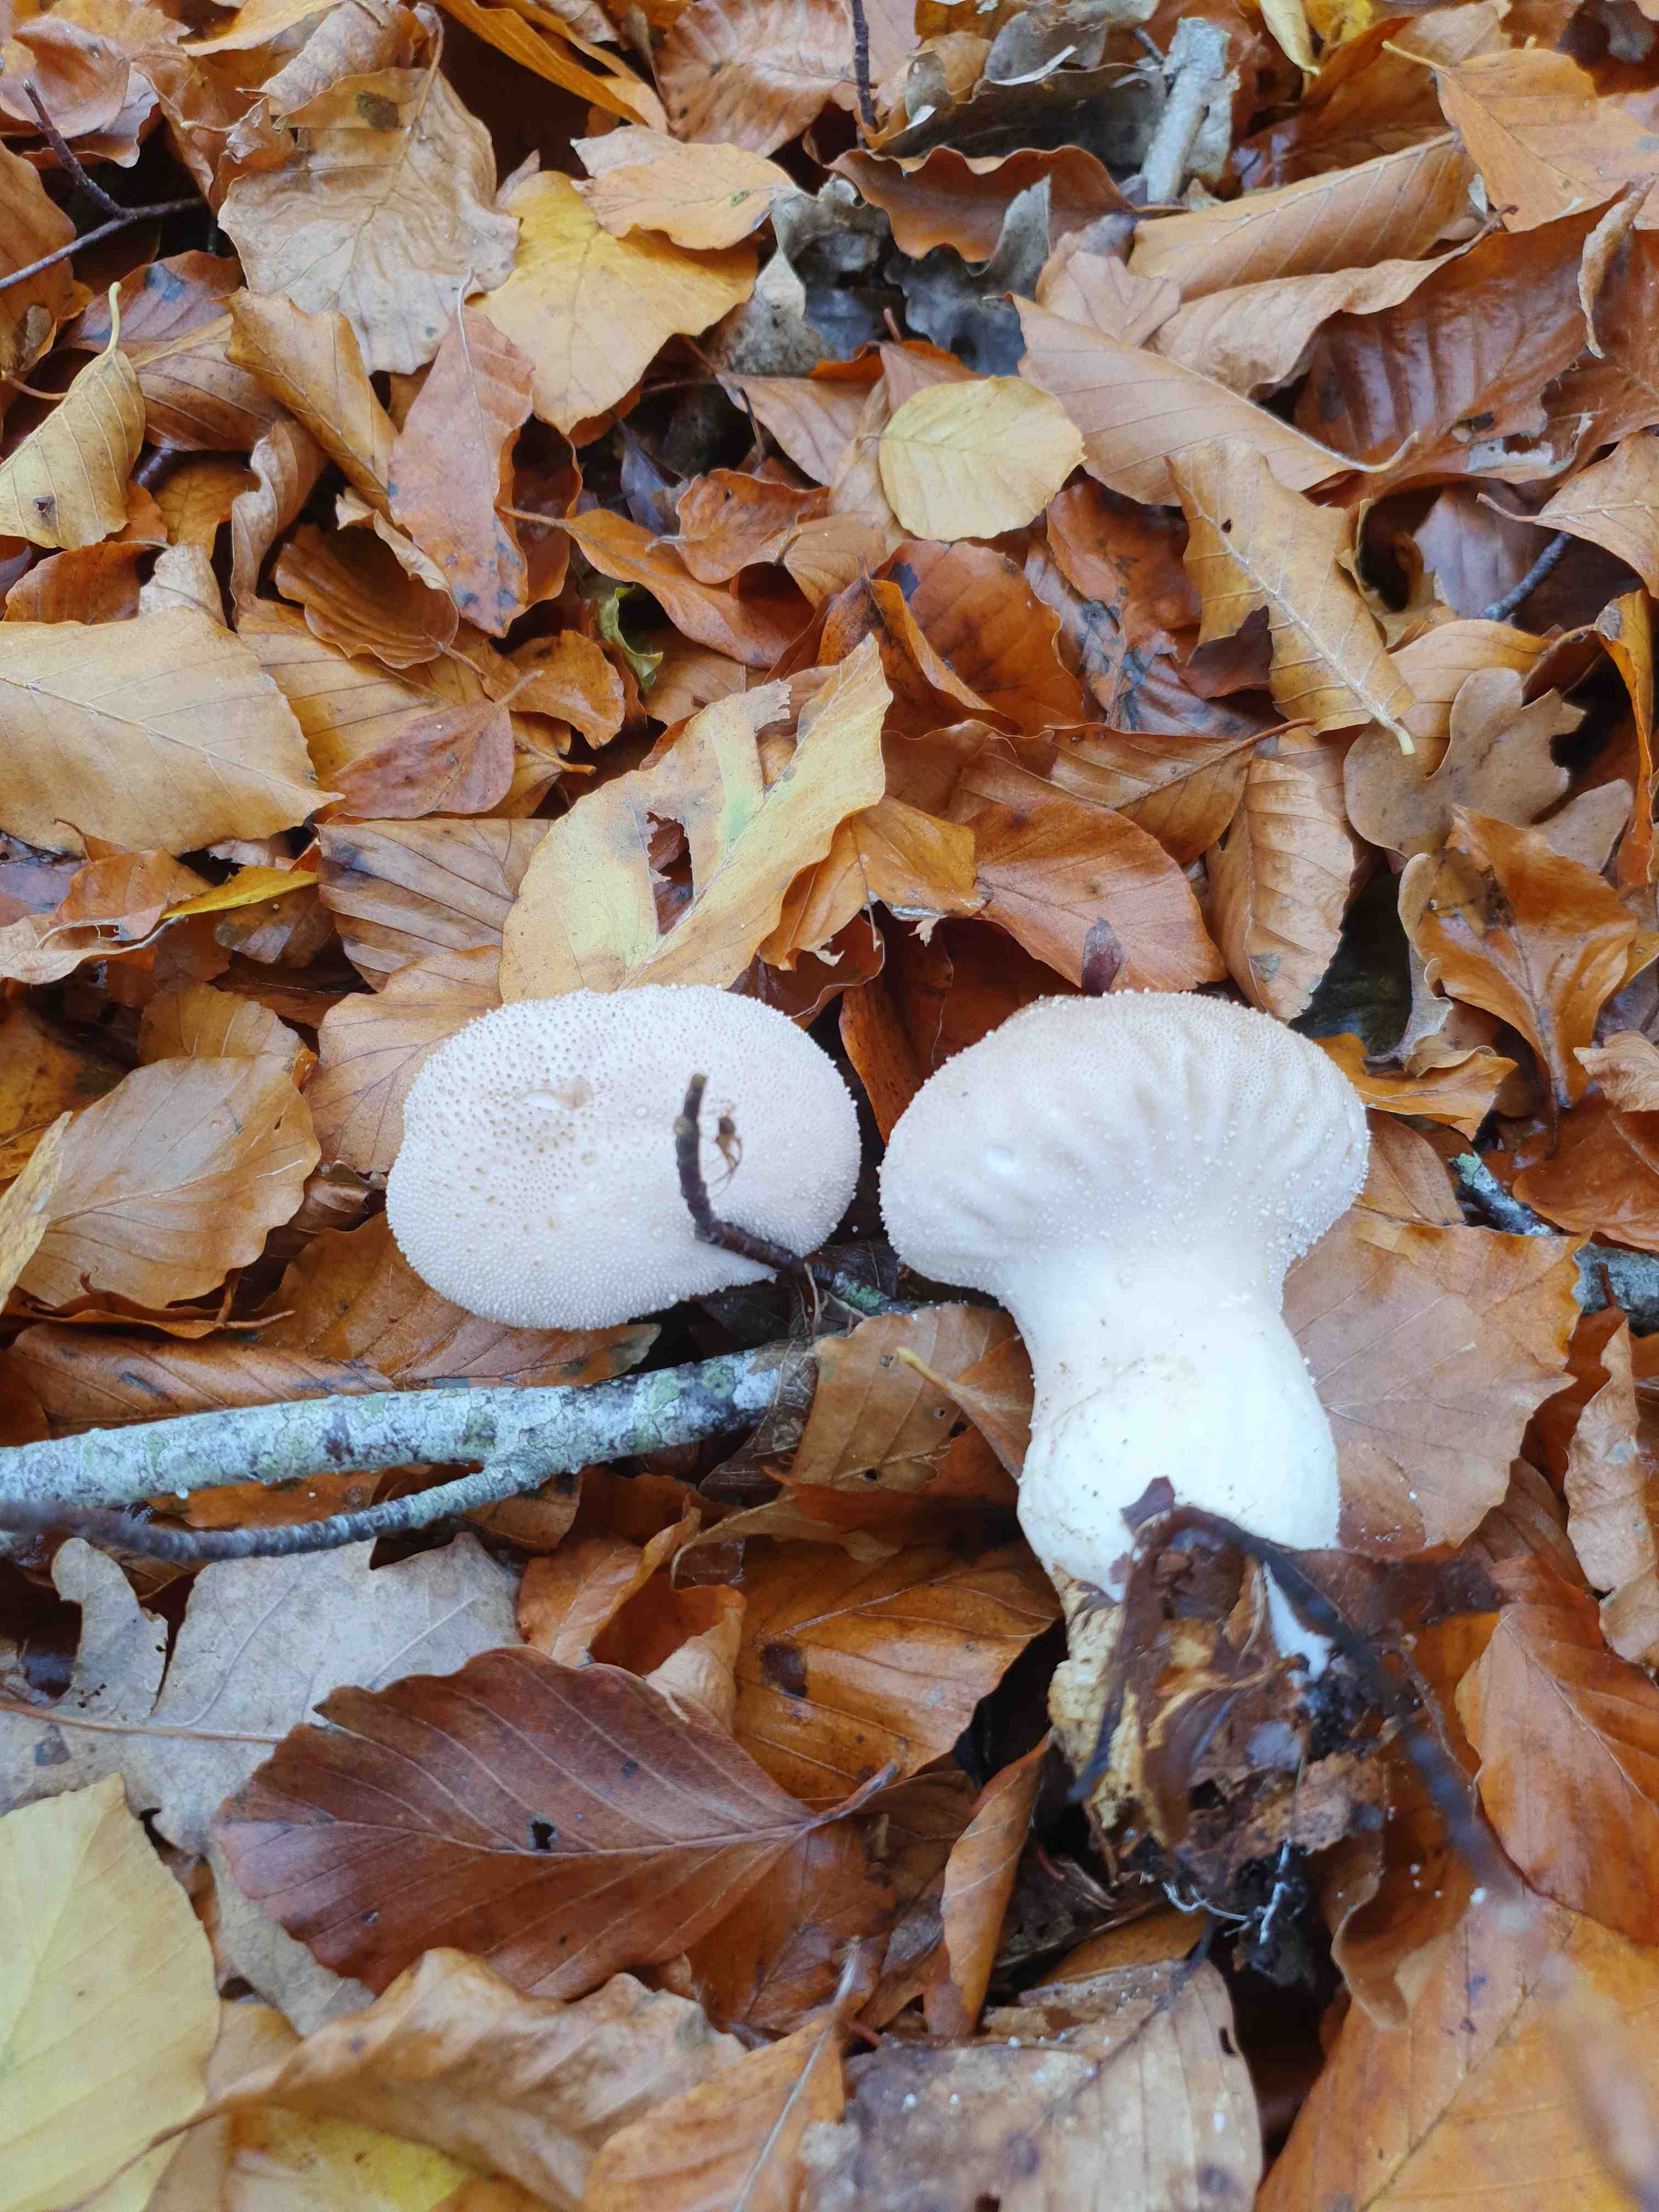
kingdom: Fungi
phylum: Basidiomycota
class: Agaricomycetes
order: Agaricales
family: Agaricaceae
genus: Lycoperdon
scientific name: Lycoperdon
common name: støvbold
